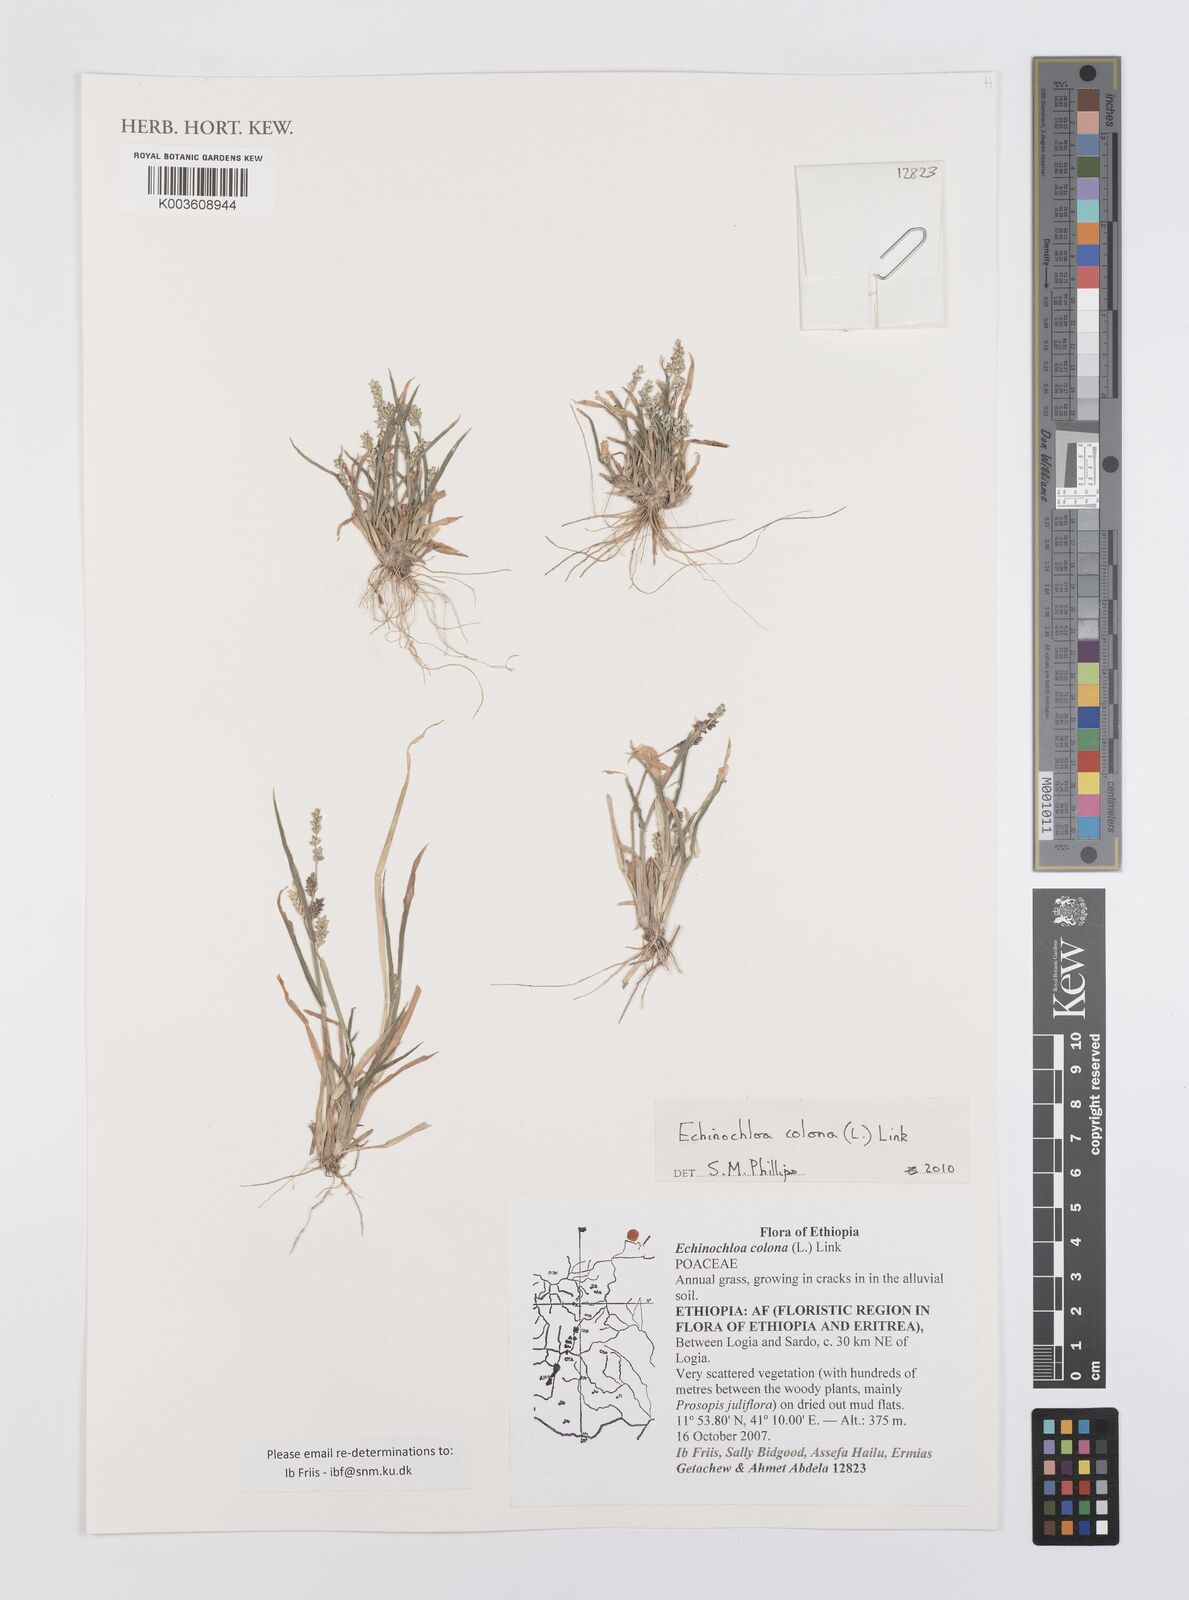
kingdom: Plantae
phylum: Tracheophyta
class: Liliopsida
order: Poales
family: Poaceae
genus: Echinochloa
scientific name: Echinochloa colonum
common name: Jungle rice
